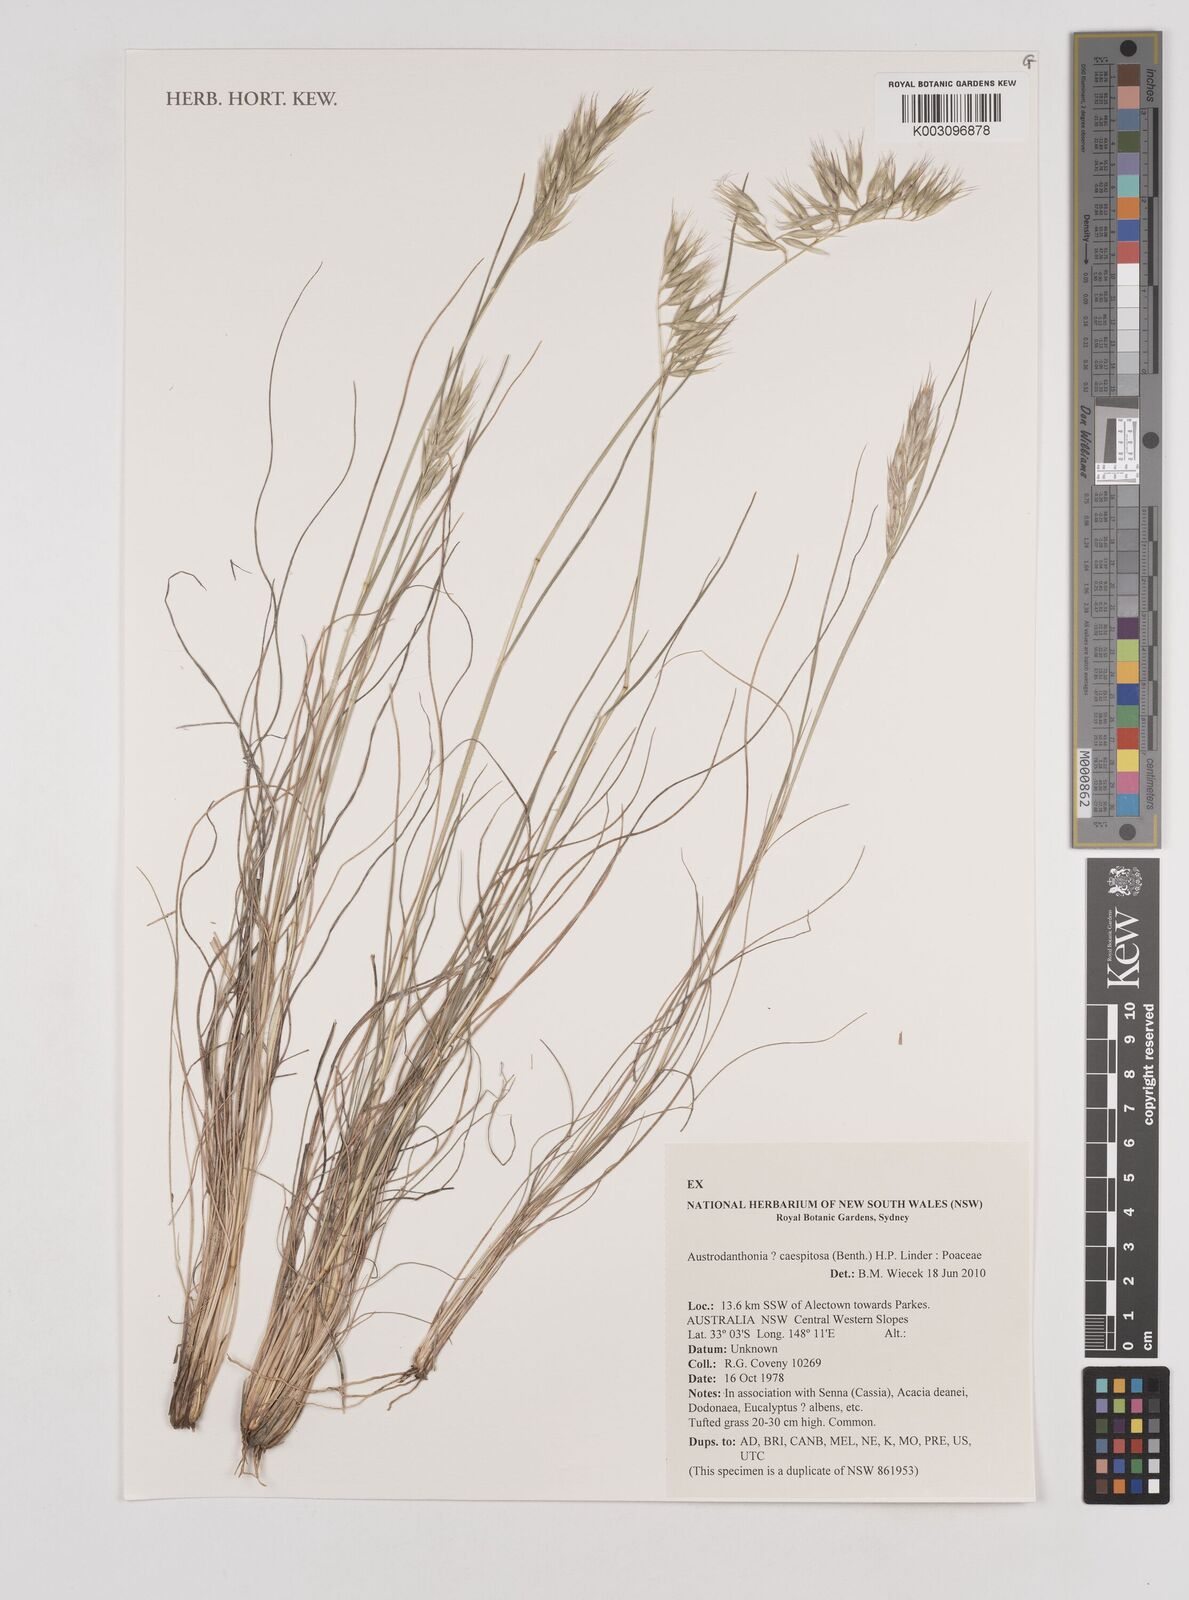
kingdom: Plantae
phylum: Tracheophyta
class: Liliopsida
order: Poales
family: Poaceae
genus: Rytidosperma
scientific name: Rytidosperma caespitosum
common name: Tufted wallaby grass
